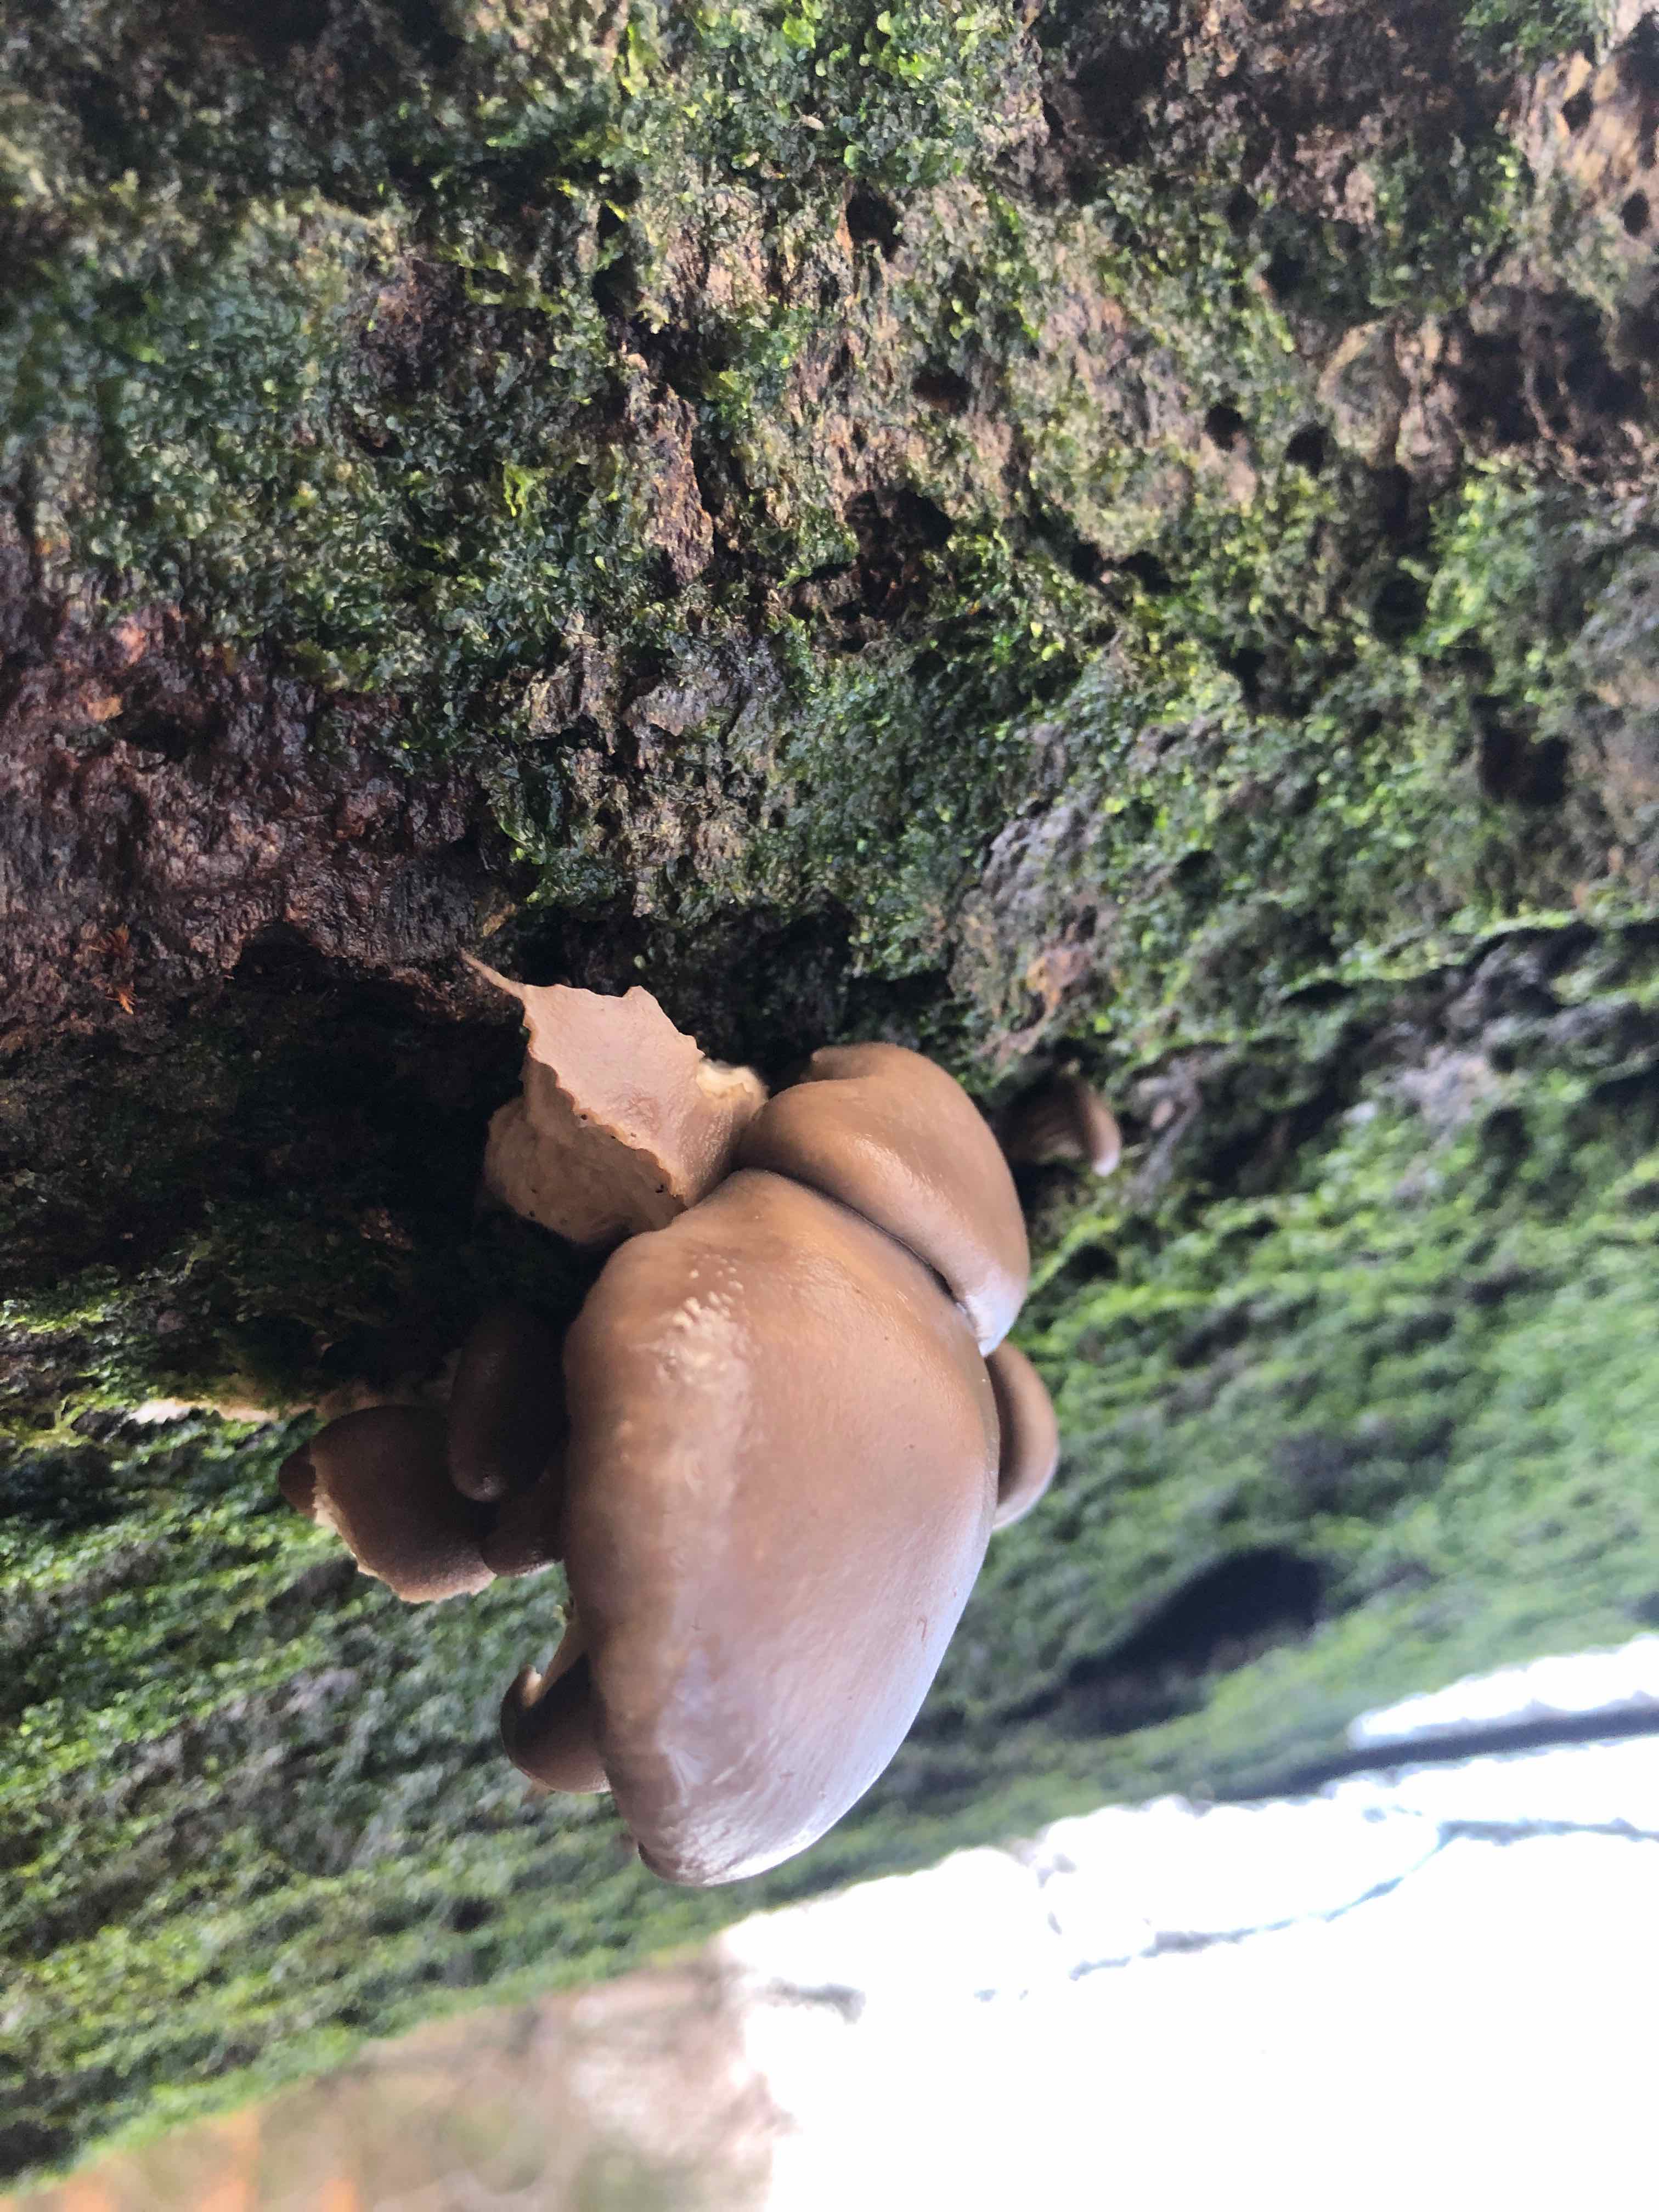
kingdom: Fungi
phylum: Basidiomycota
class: Agaricomycetes
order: Agaricales
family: Pleurotaceae
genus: Pleurotus
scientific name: Pleurotus ostreatus
